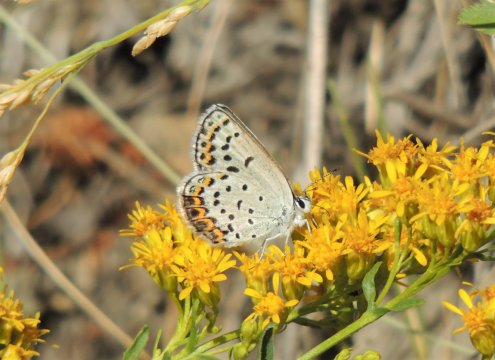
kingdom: Animalia
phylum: Arthropoda
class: Insecta
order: Lepidoptera
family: Lycaenidae
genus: Lycaeides
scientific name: Lycaeides melissa
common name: Melissa Blue
